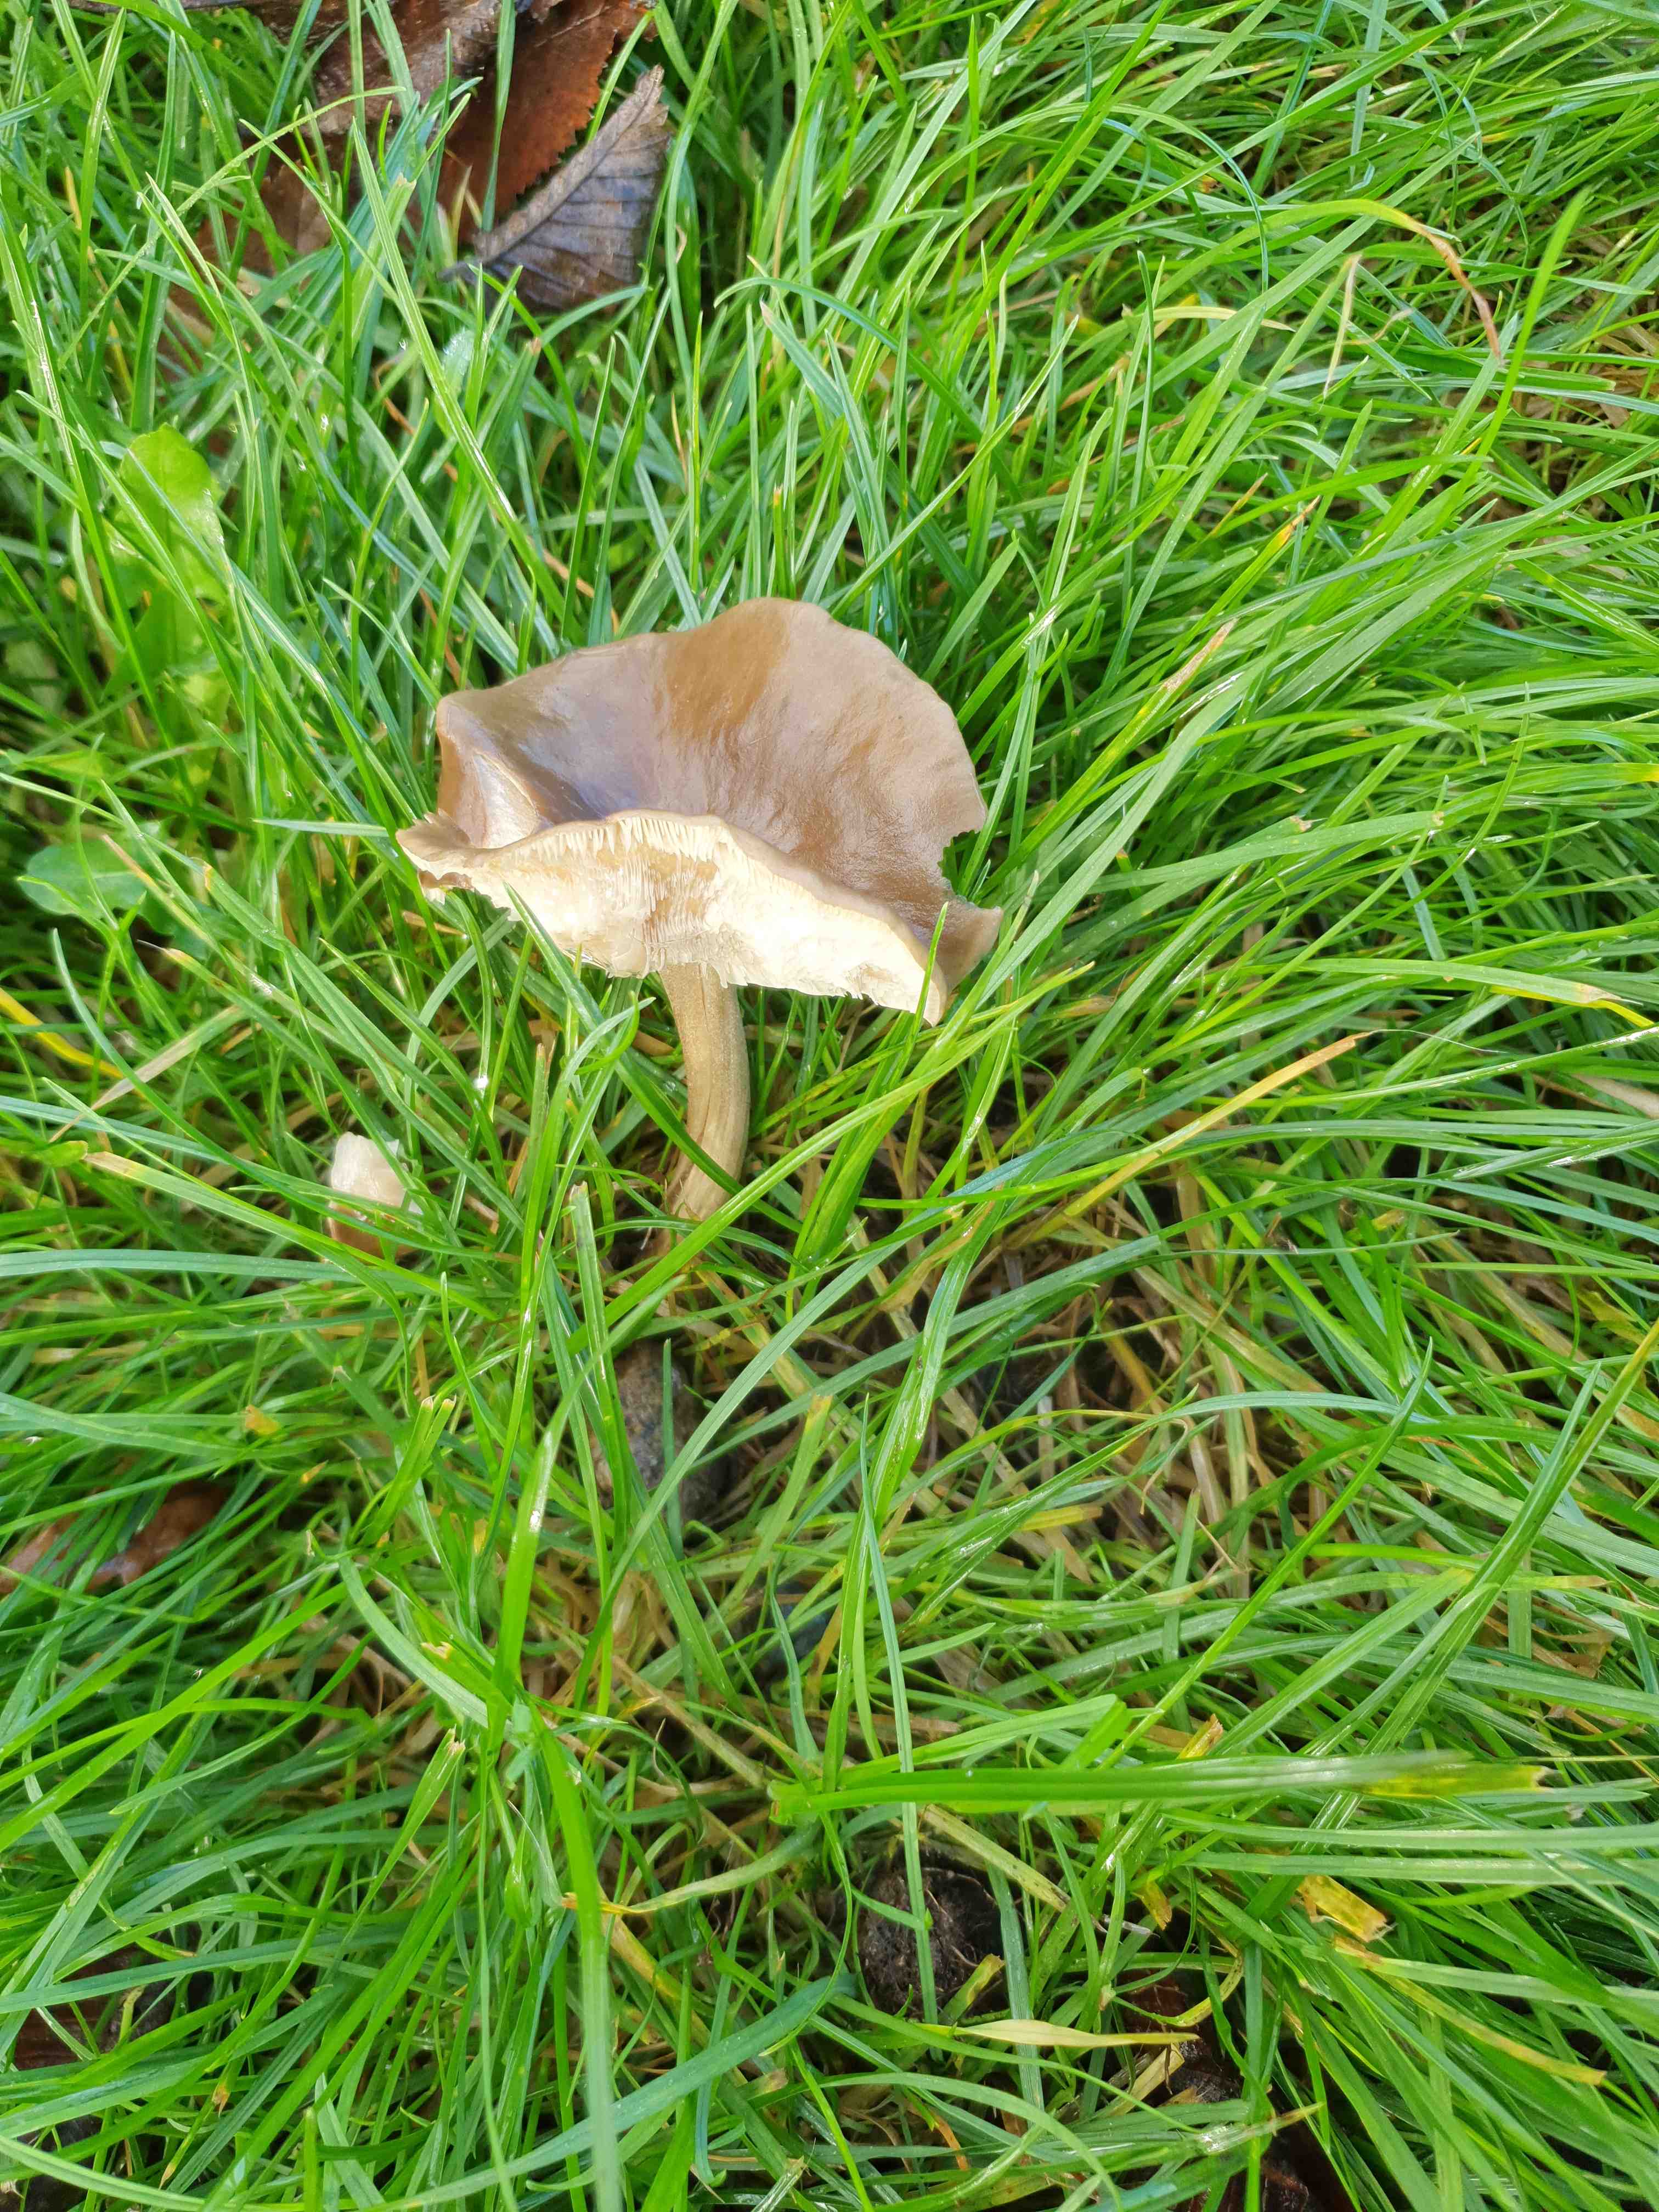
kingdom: Fungi
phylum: Basidiomycota
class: Agaricomycetes
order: Agaricales
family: Tricholomataceae
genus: Melanoleuca
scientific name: Melanoleuca
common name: munkehat
